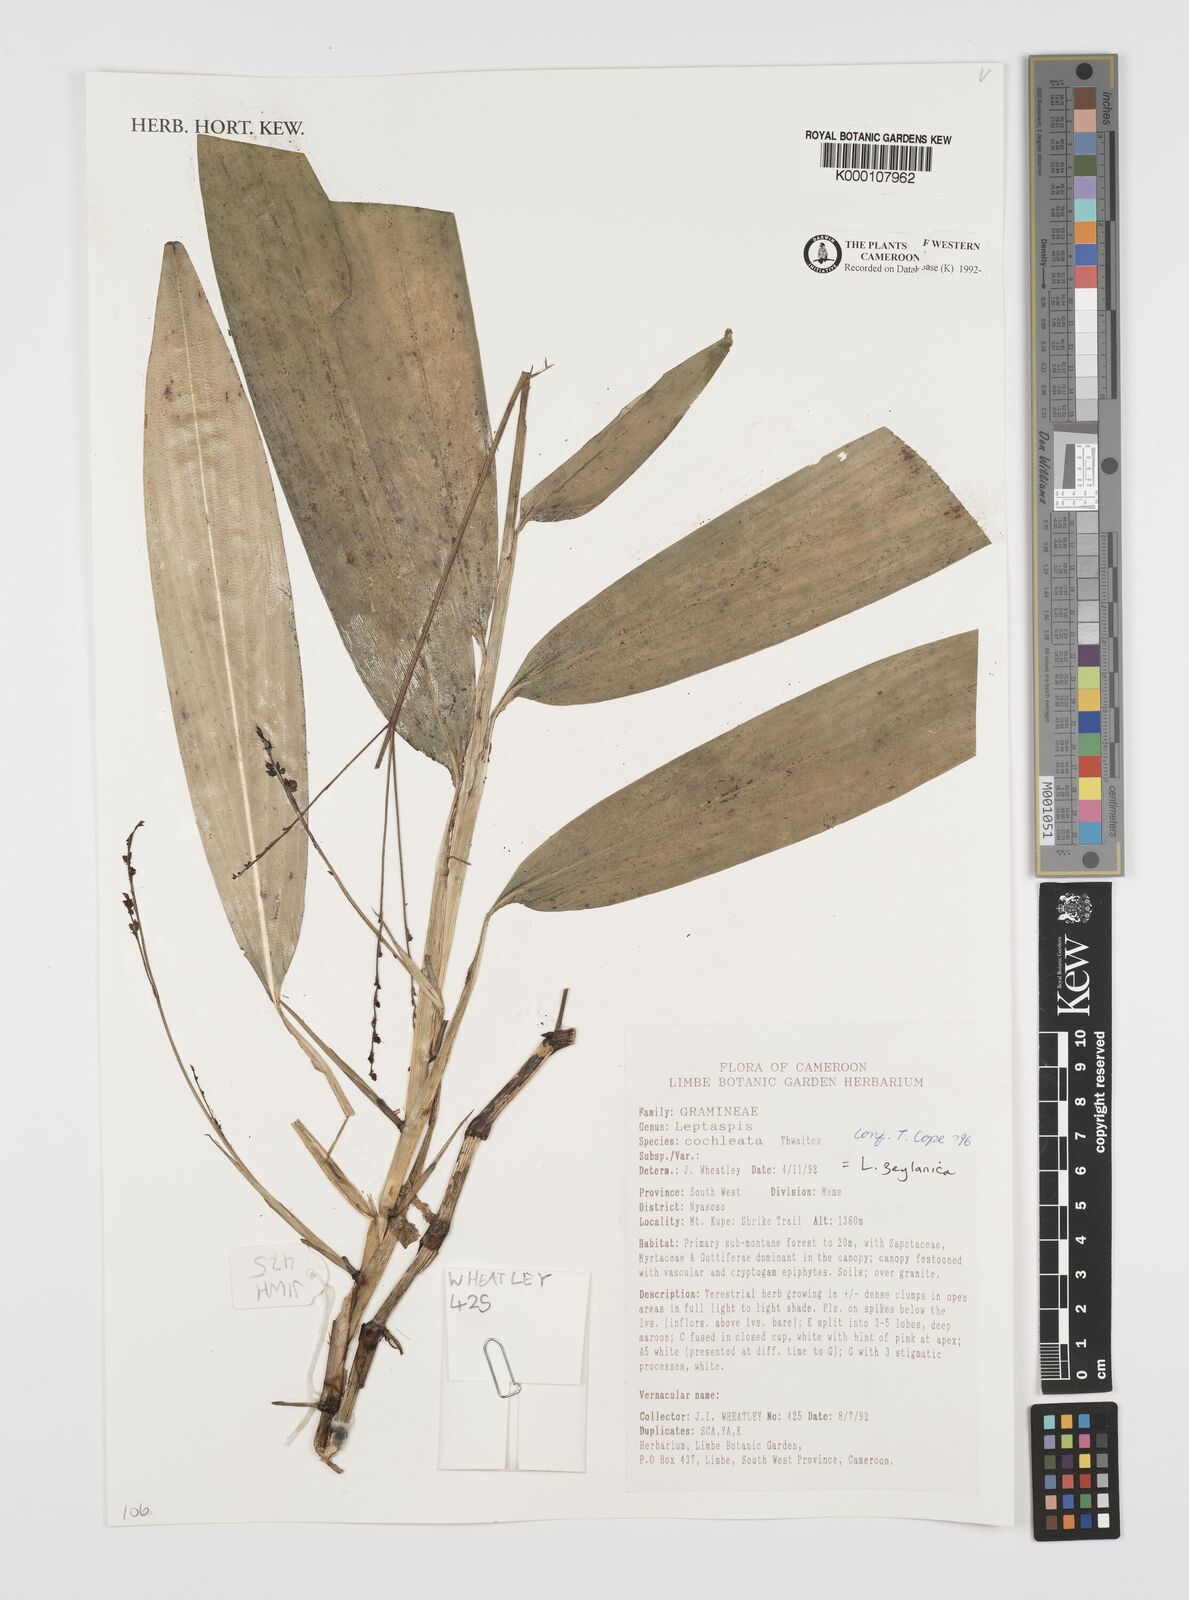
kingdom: Plantae
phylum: Tracheophyta
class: Liliopsida
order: Poales
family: Poaceae
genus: Leptaspis
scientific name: Leptaspis zeylanica
